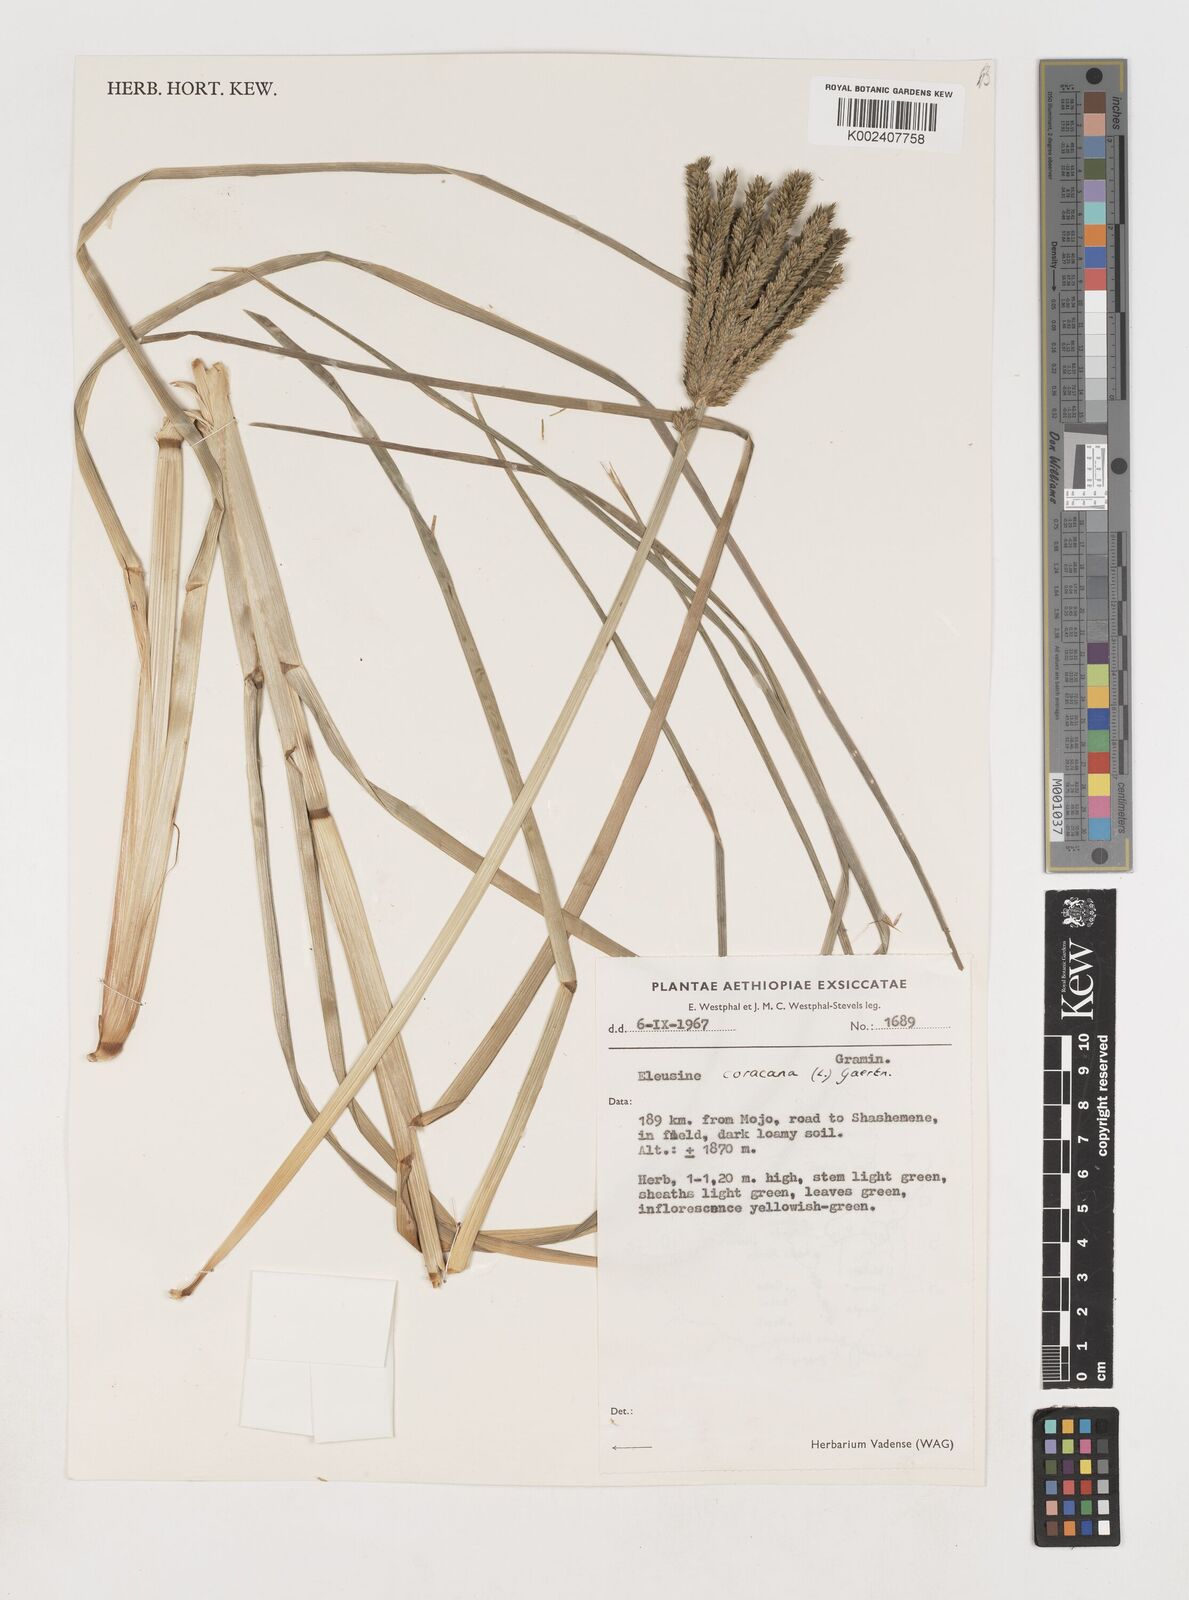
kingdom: Plantae
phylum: Tracheophyta
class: Liliopsida
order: Poales
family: Poaceae
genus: Eleusine
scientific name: Eleusine coracana
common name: Finger millet
